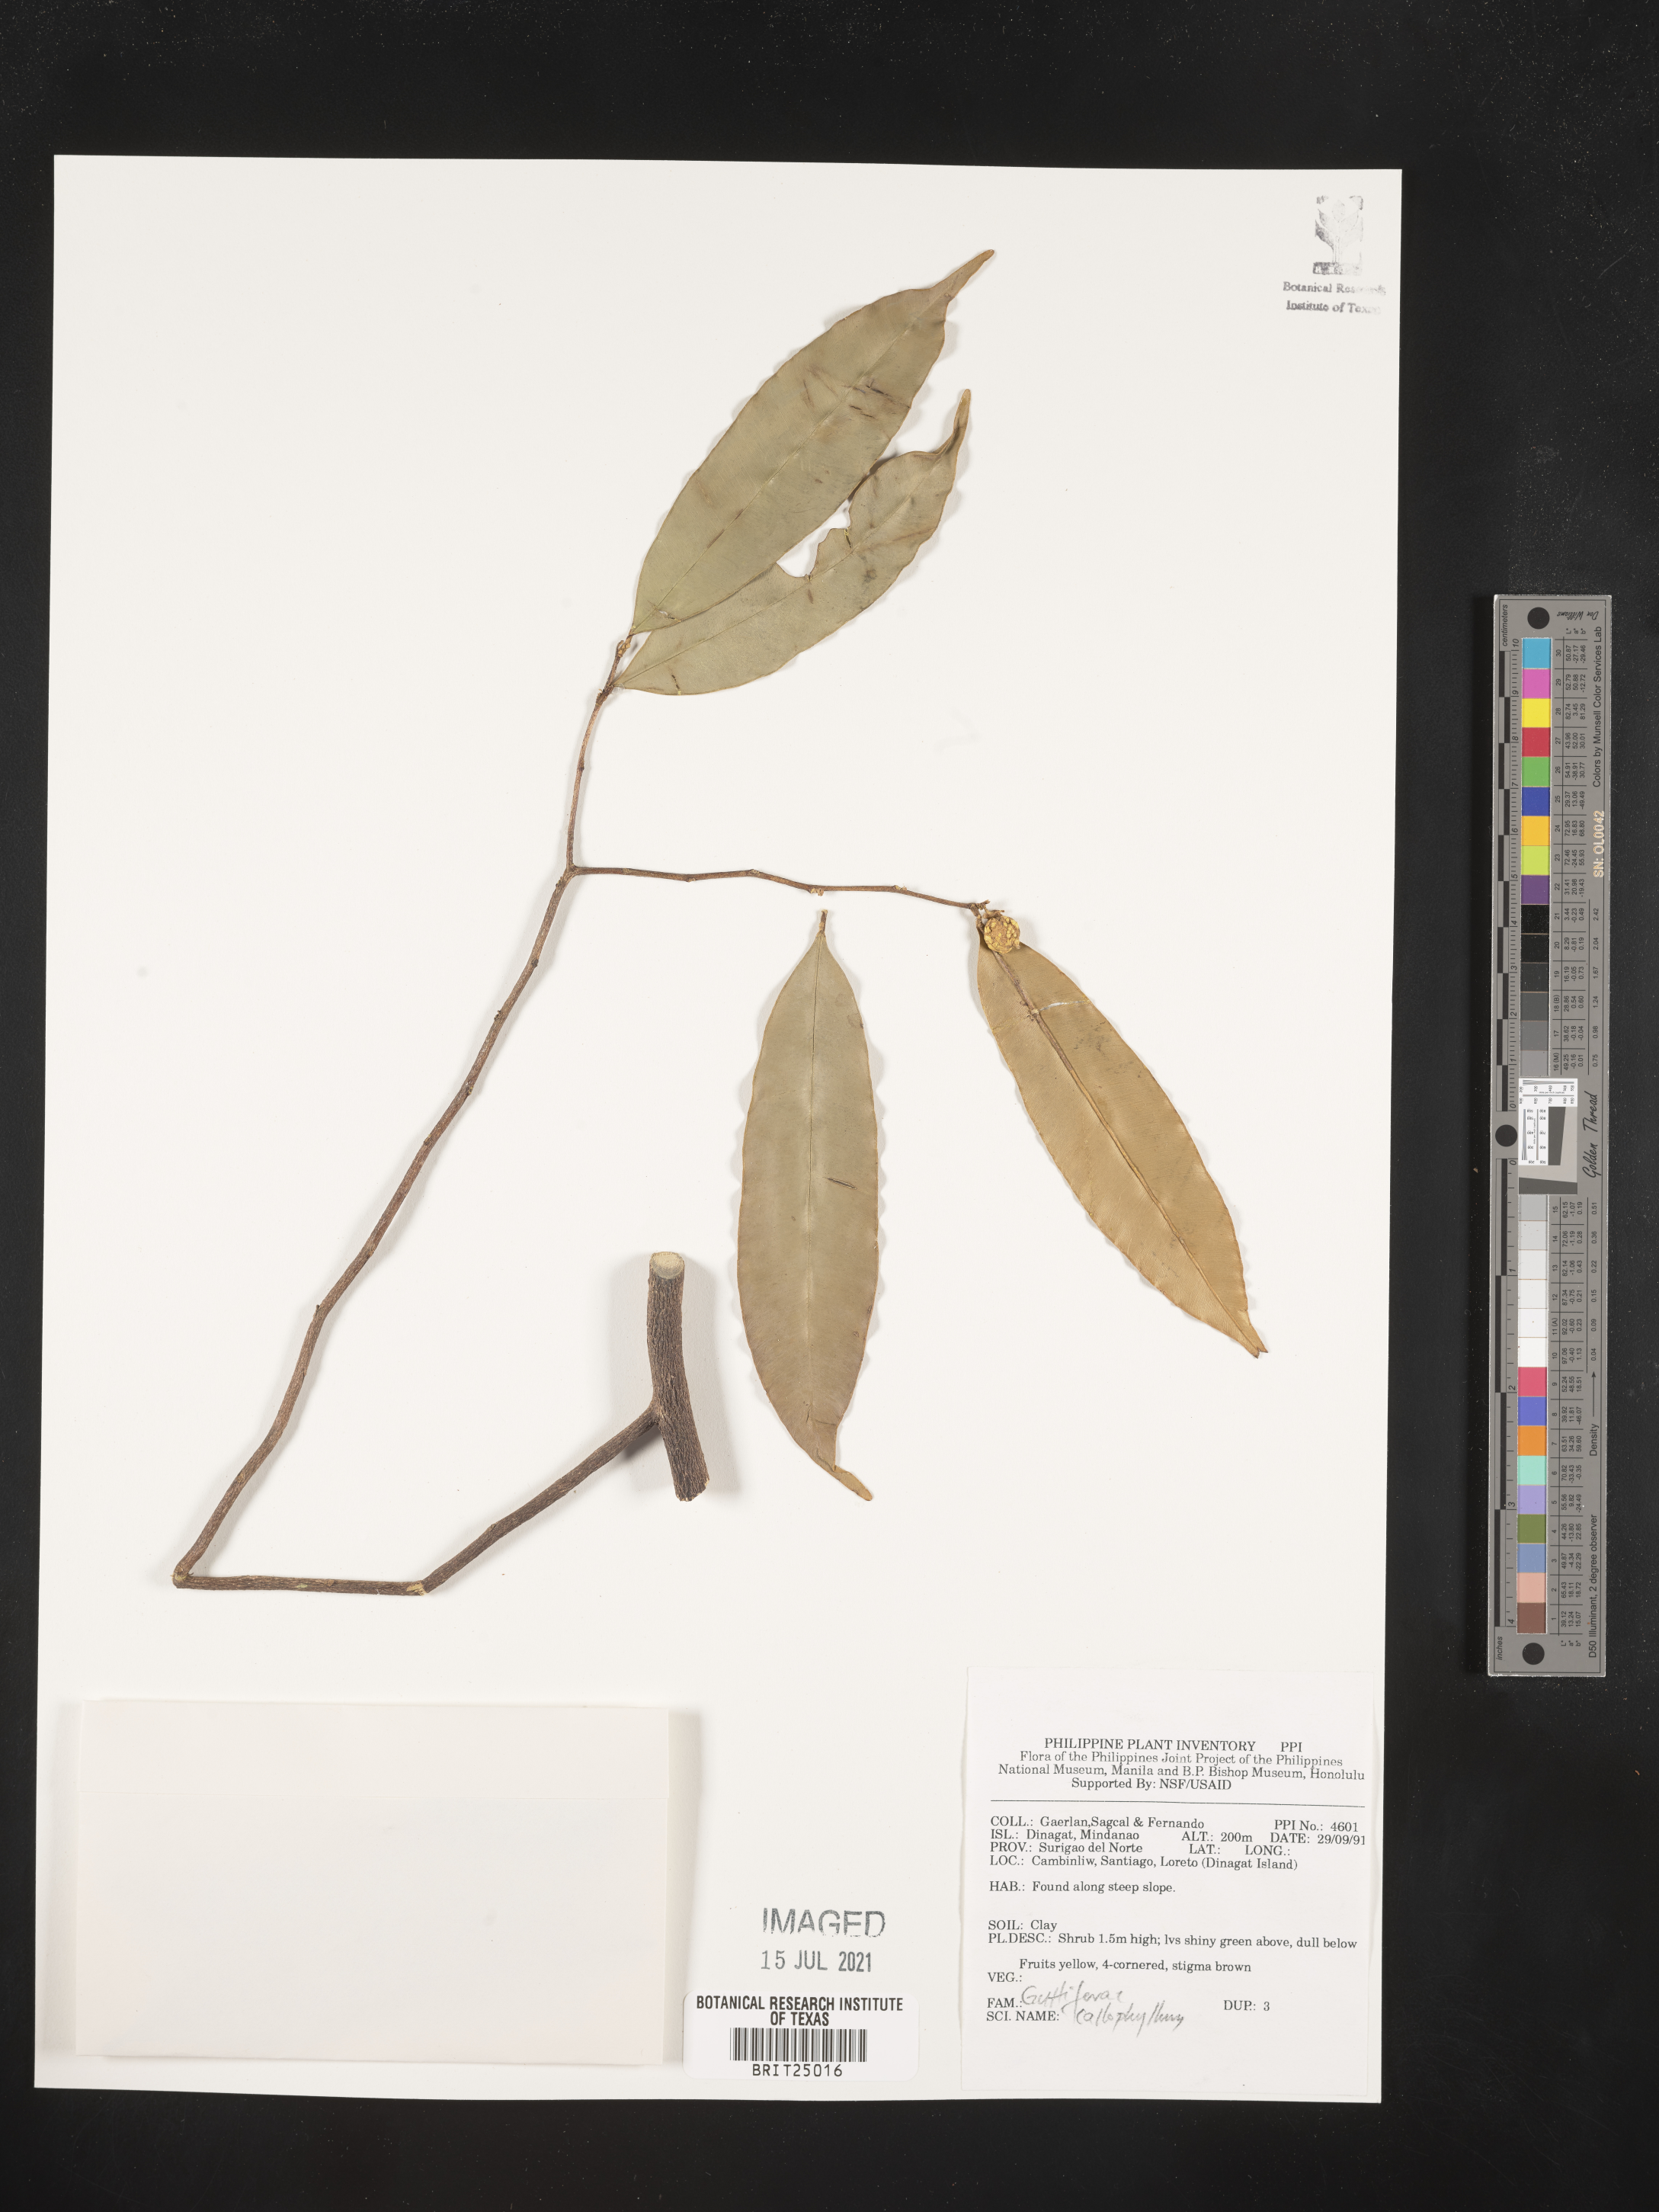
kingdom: Plantae
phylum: Tracheophyta
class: Magnoliopsida
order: Malpighiales
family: Calophyllaceae
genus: Calophyllum
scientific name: Calophyllum
